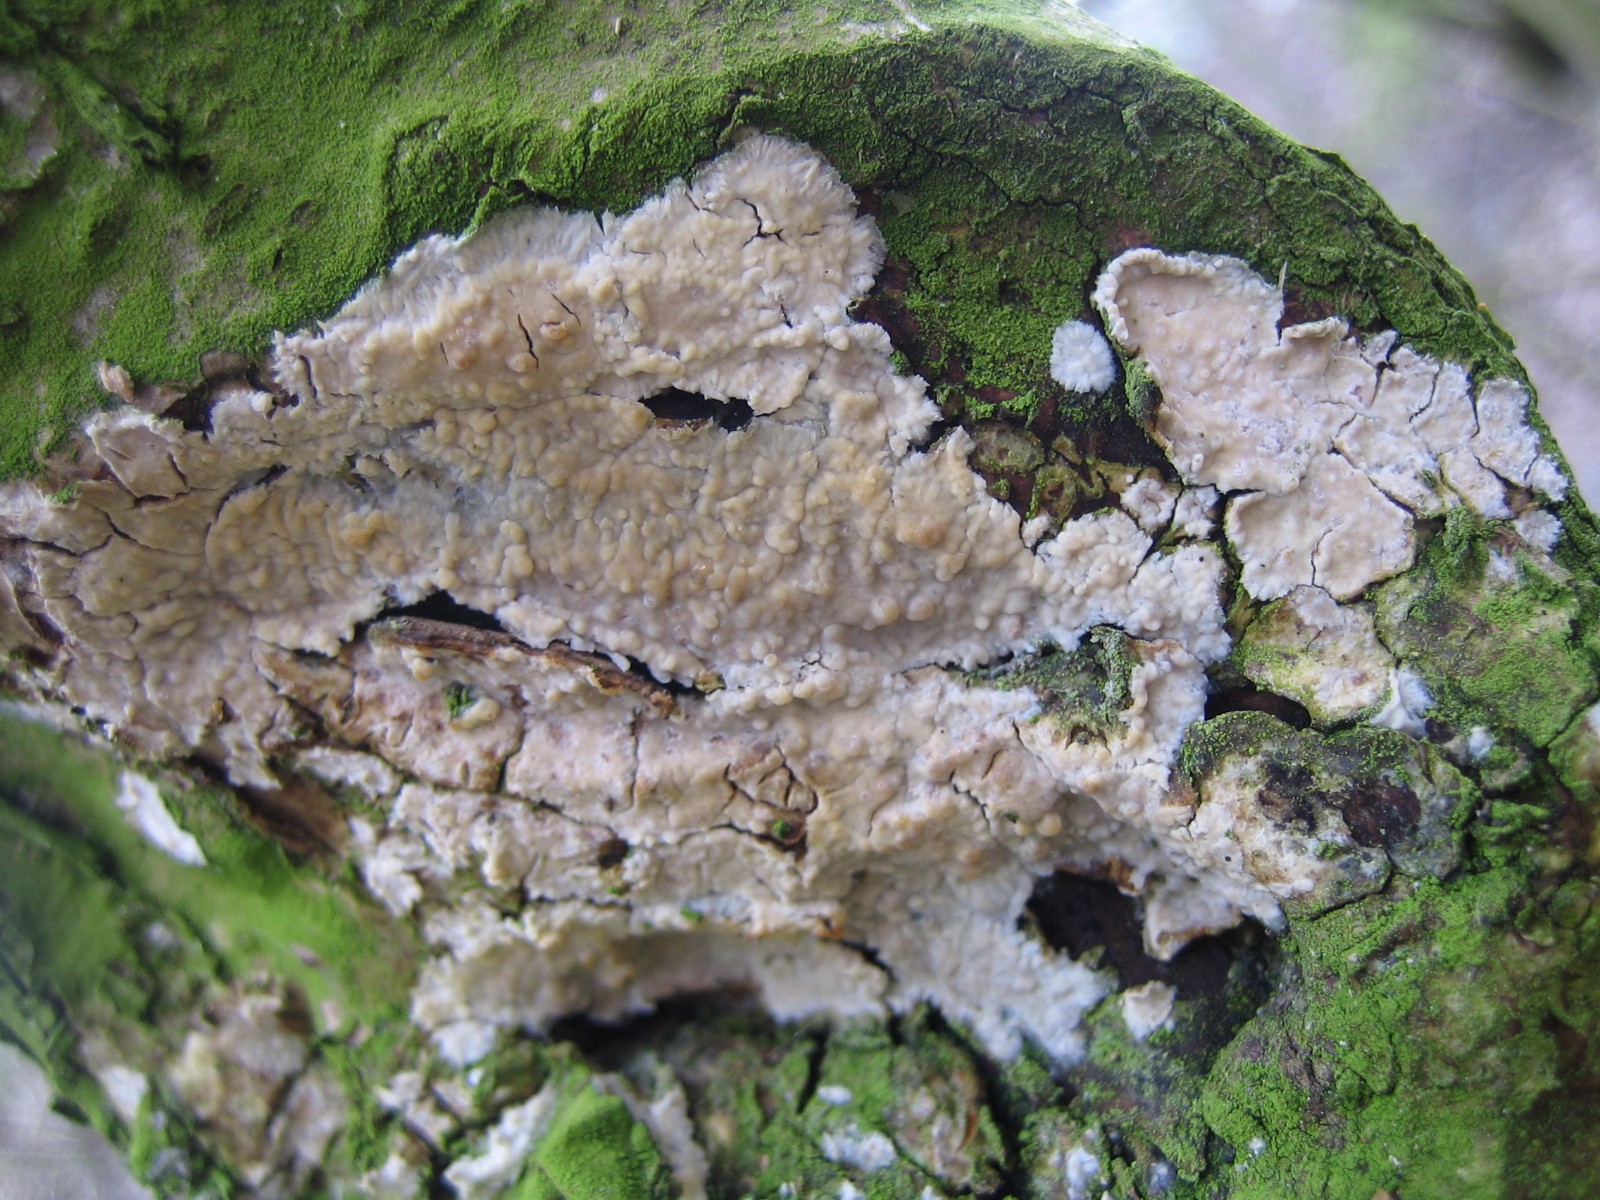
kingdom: Fungi
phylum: Basidiomycota
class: Agaricomycetes
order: Agaricales
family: Physalacriaceae
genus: Cylindrobasidium
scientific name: Cylindrobasidium evolvens
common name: sprækkehinde
